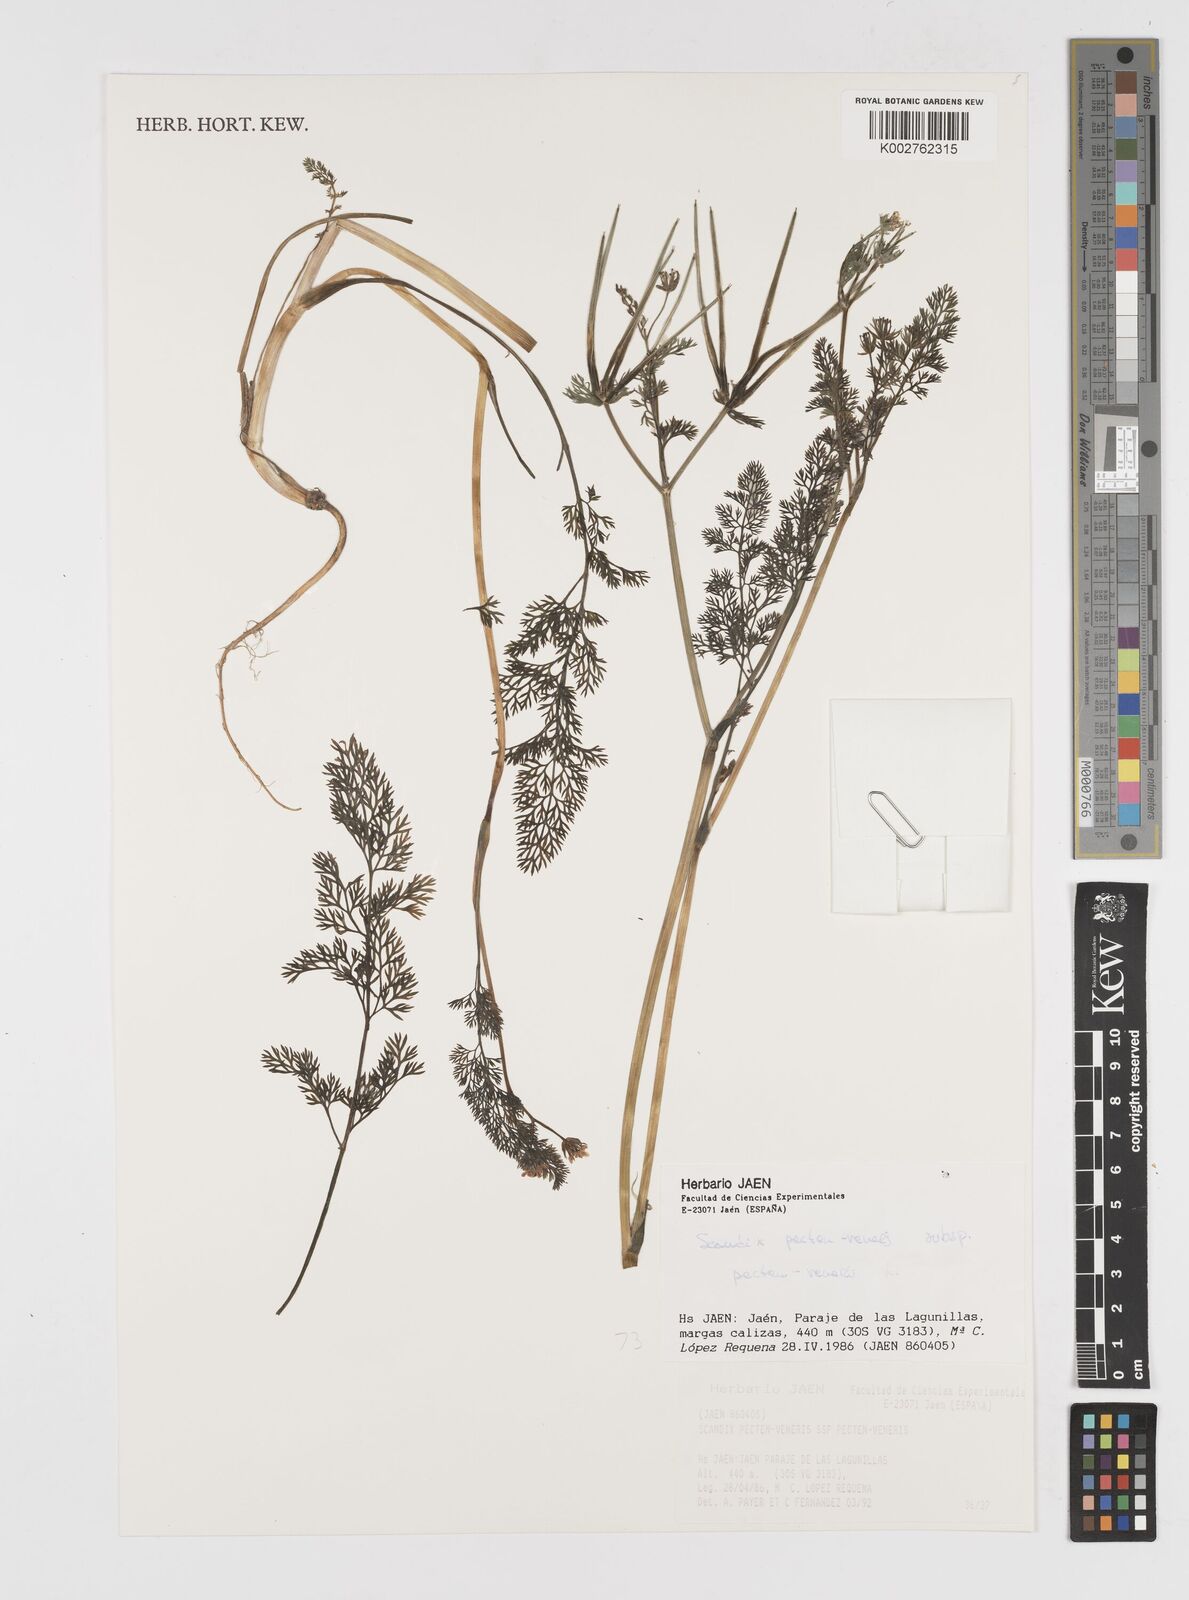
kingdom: Plantae
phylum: Tracheophyta
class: Magnoliopsida
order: Apiales
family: Apiaceae
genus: Scandix
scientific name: Scandix pecten-veneris
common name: Shepherd's-needle
